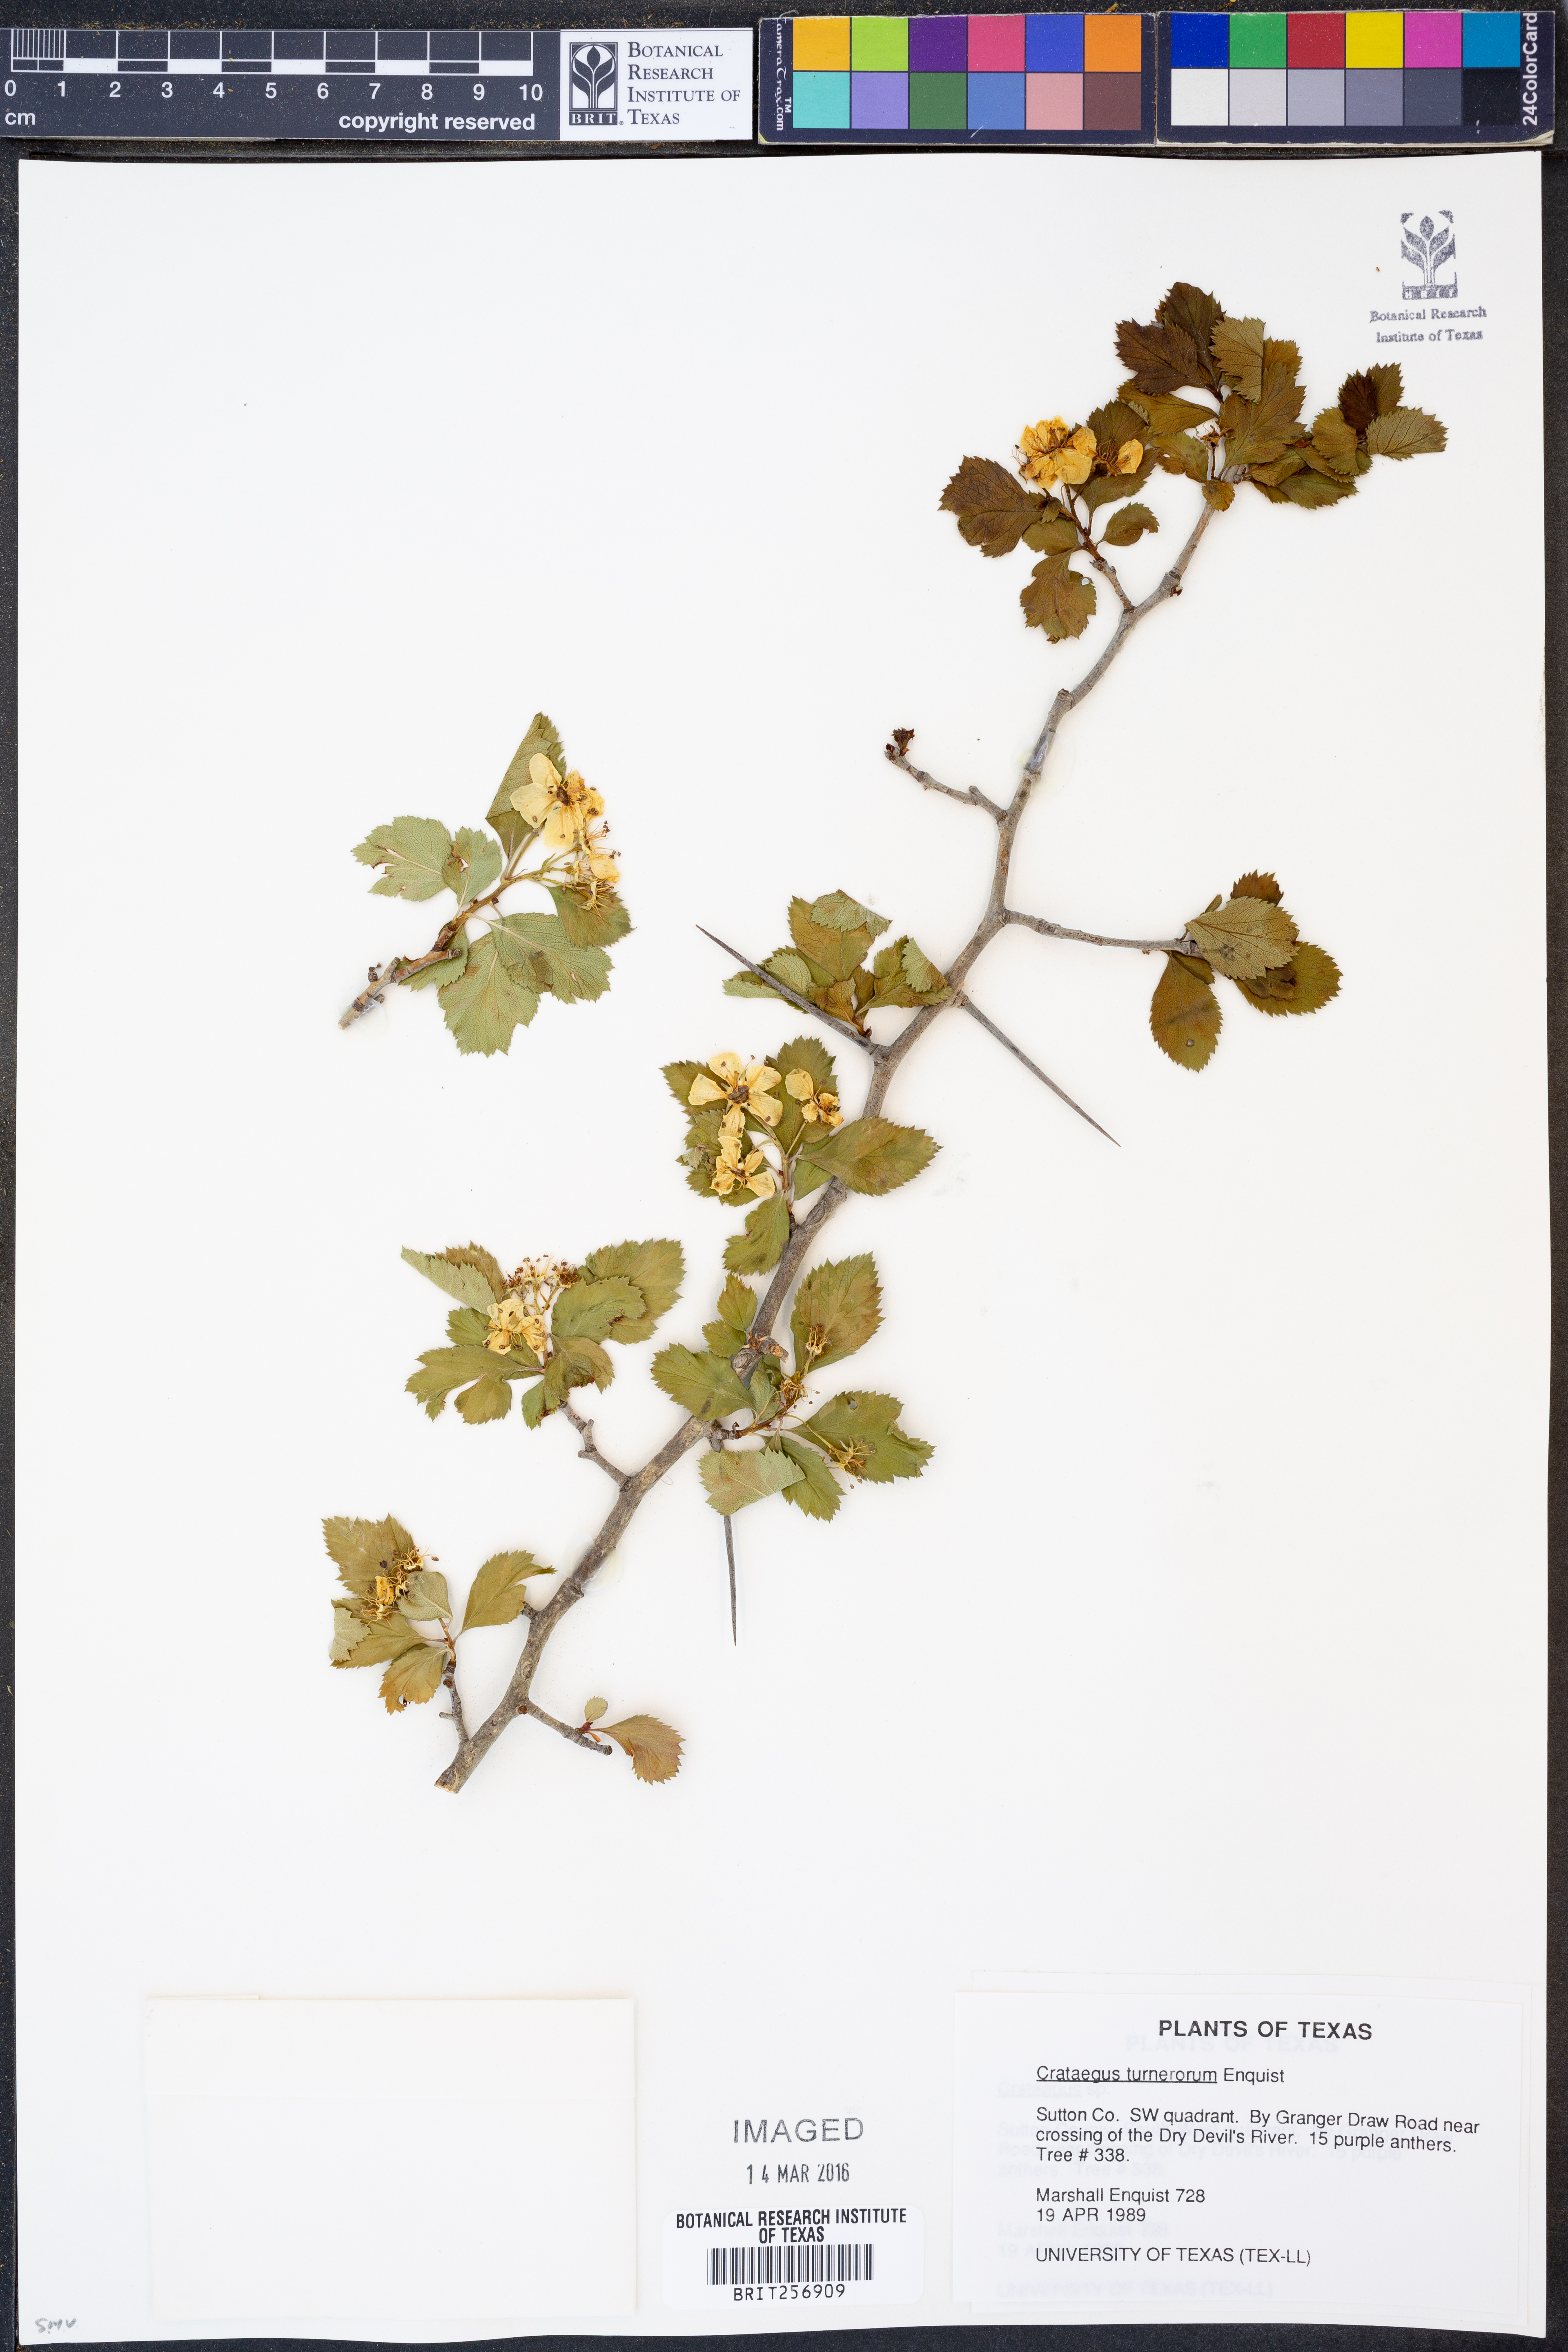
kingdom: Plantae
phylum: Tracheophyta
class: Magnoliopsida
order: Rosales
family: Rosaceae
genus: Crataegus
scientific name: Crataegus turnerorum
